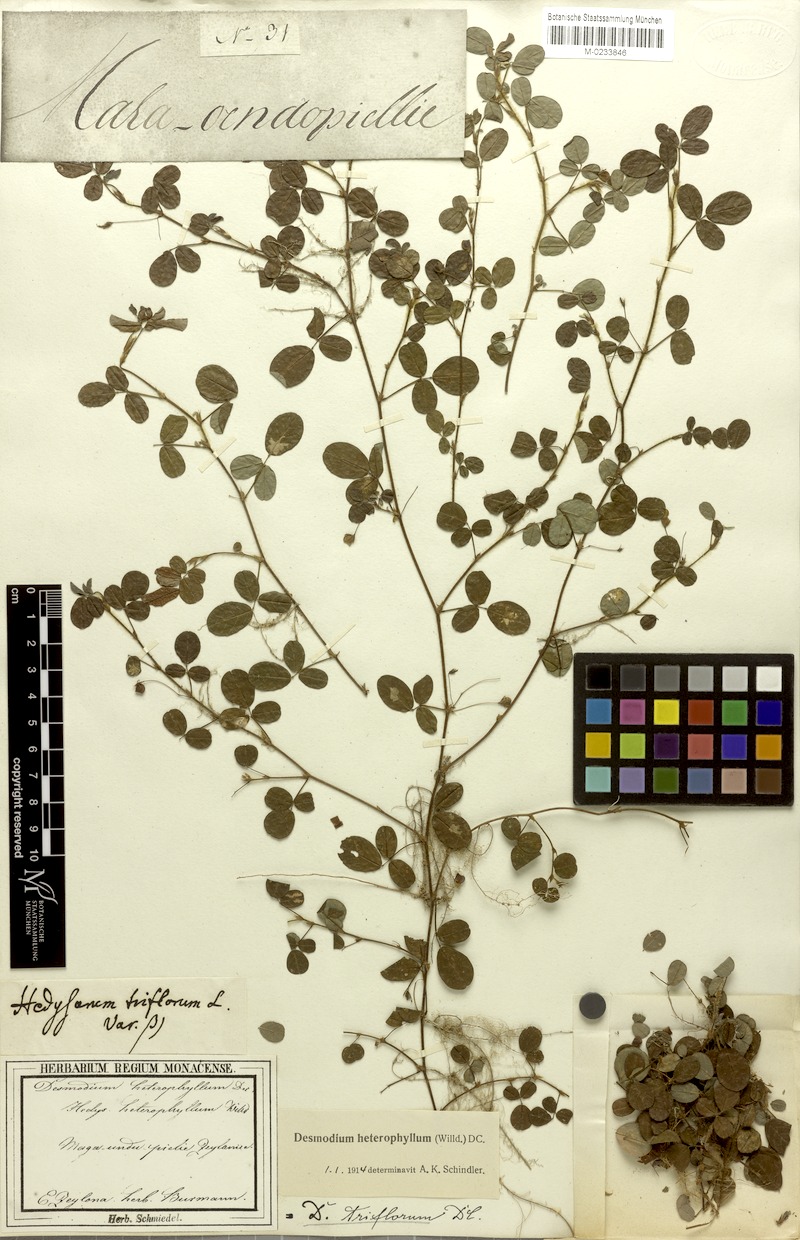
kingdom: Plantae
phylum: Tracheophyta
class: Magnoliopsida
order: Fabales
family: Fabaceae
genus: Grona
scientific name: Grona heterophylla
